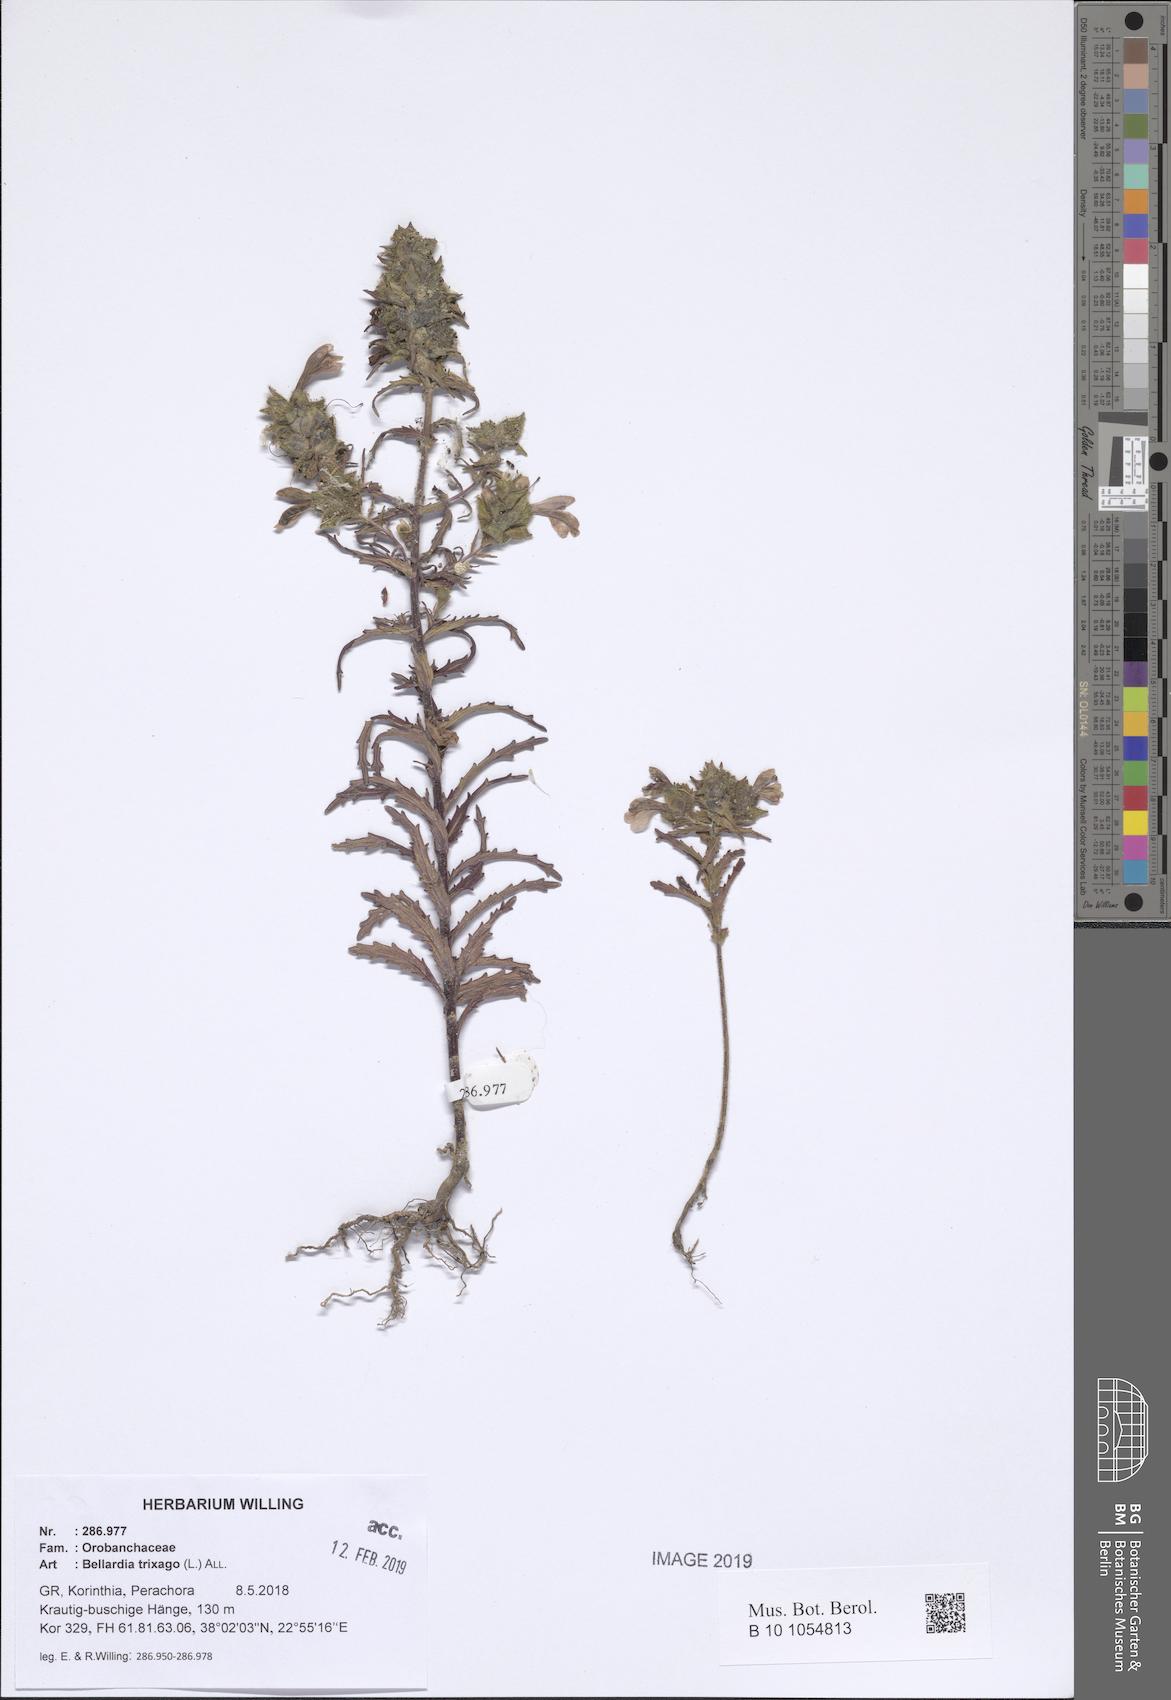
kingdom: Plantae
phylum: Tracheophyta
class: Magnoliopsida
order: Lamiales
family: Orobanchaceae
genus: Bellardia
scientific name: Bellardia trixago
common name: Mediterranean lineseed
